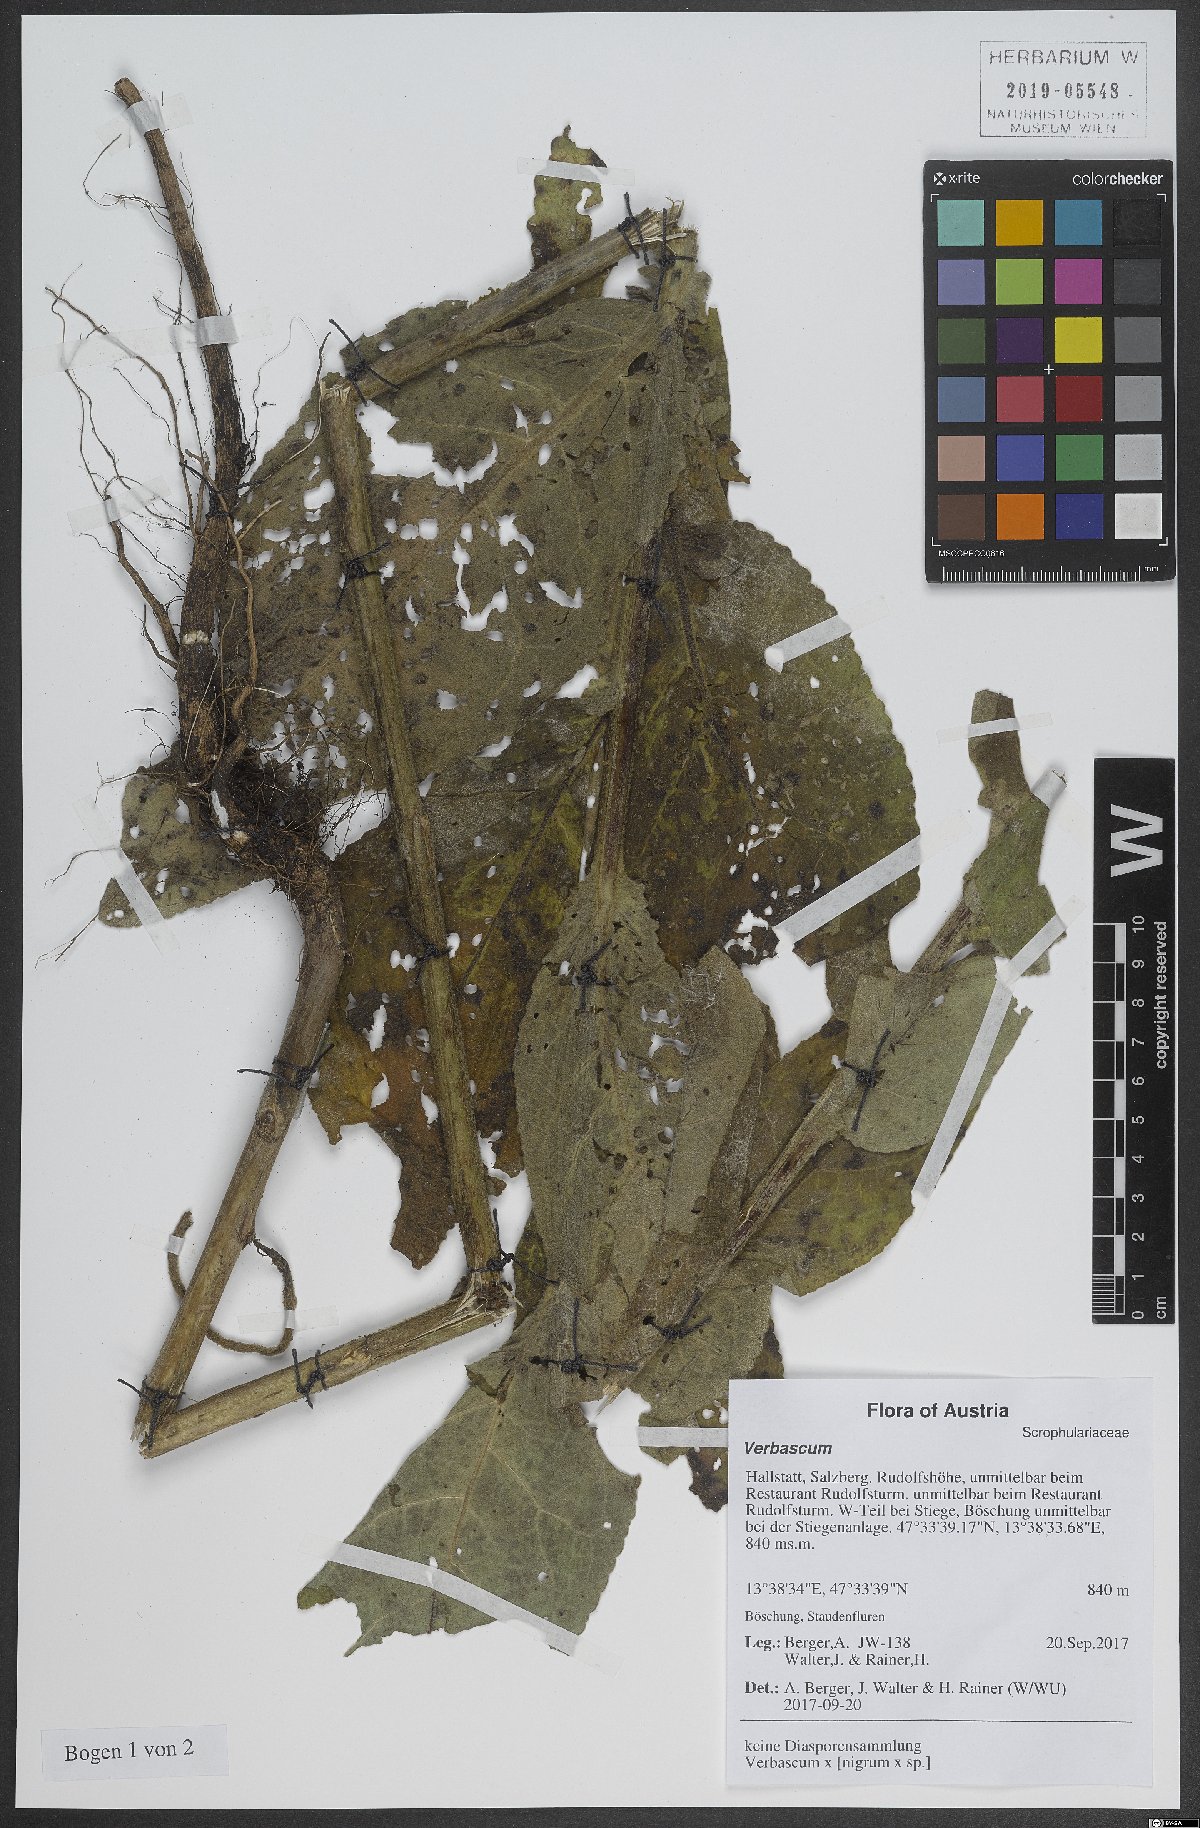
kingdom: Plantae
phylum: Tracheophyta
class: Magnoliopsida
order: Lamiales
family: Scrophulariaceae
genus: Verbascum
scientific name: Verbascum
